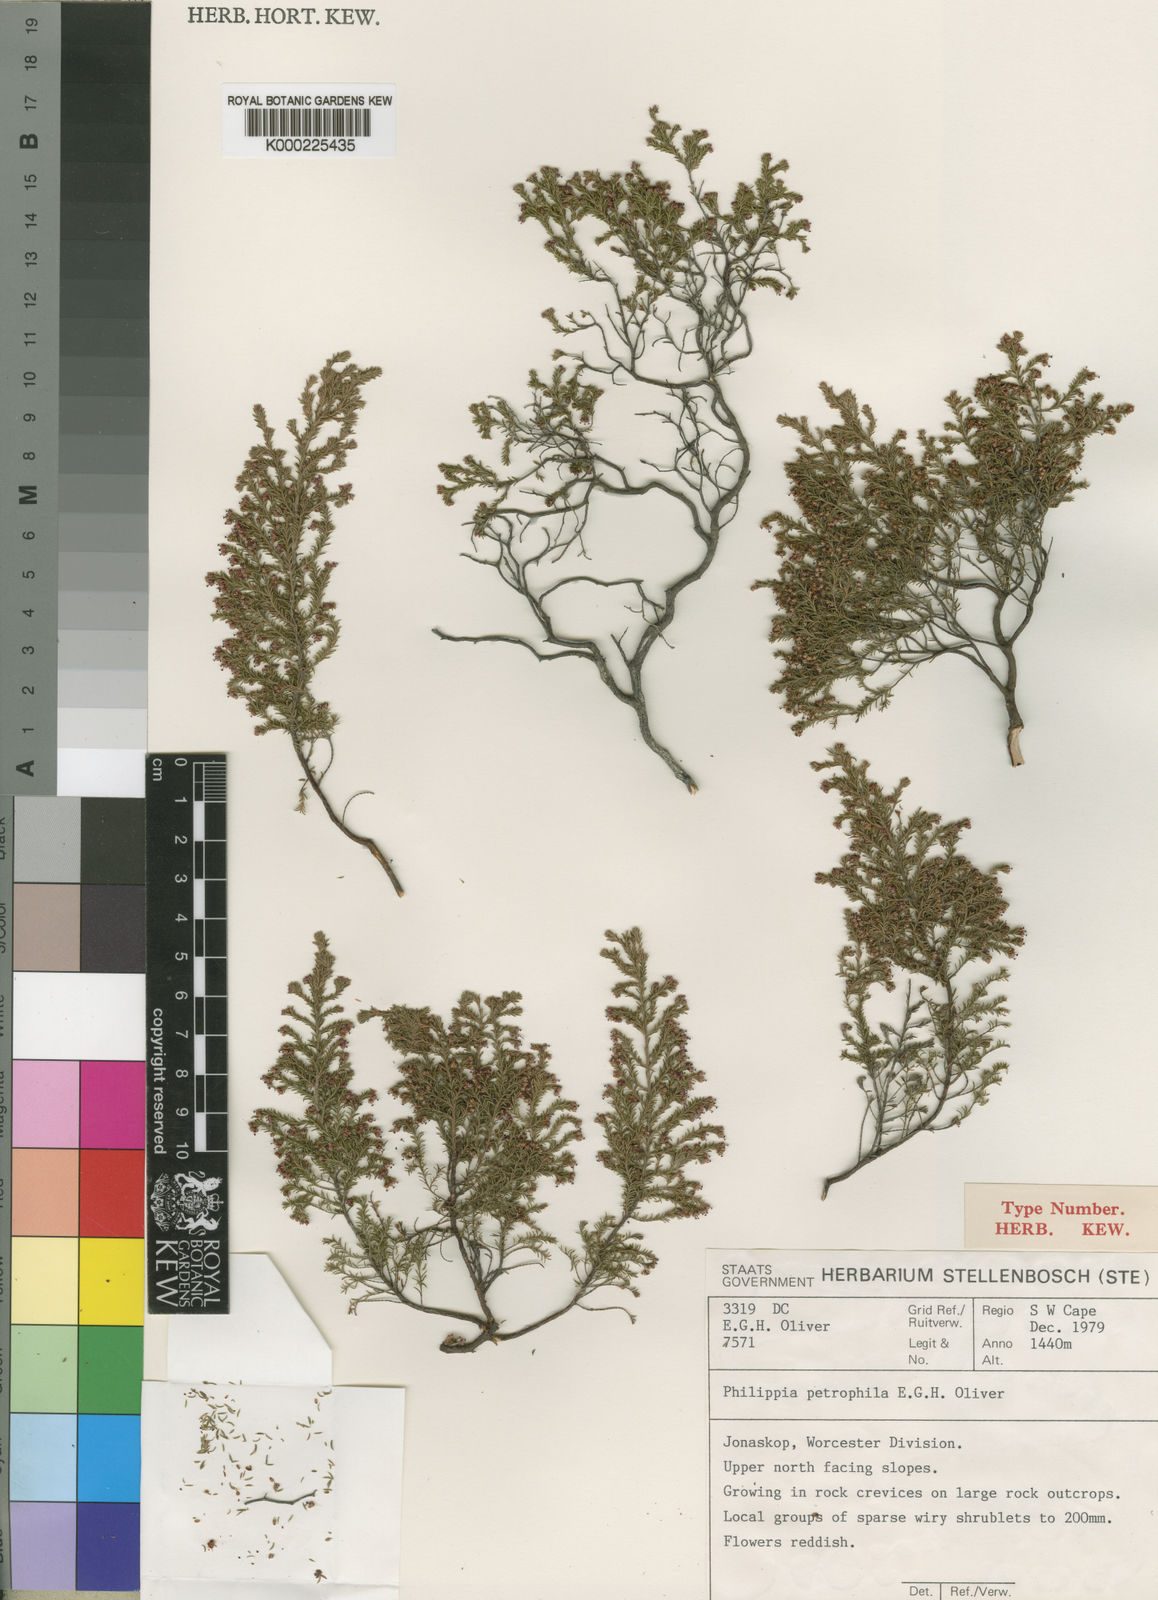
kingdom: Plantae
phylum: Tracheophyta
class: Magnoliopsida
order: Ericales
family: Ericaceae
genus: Erica
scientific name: Erica petricola
